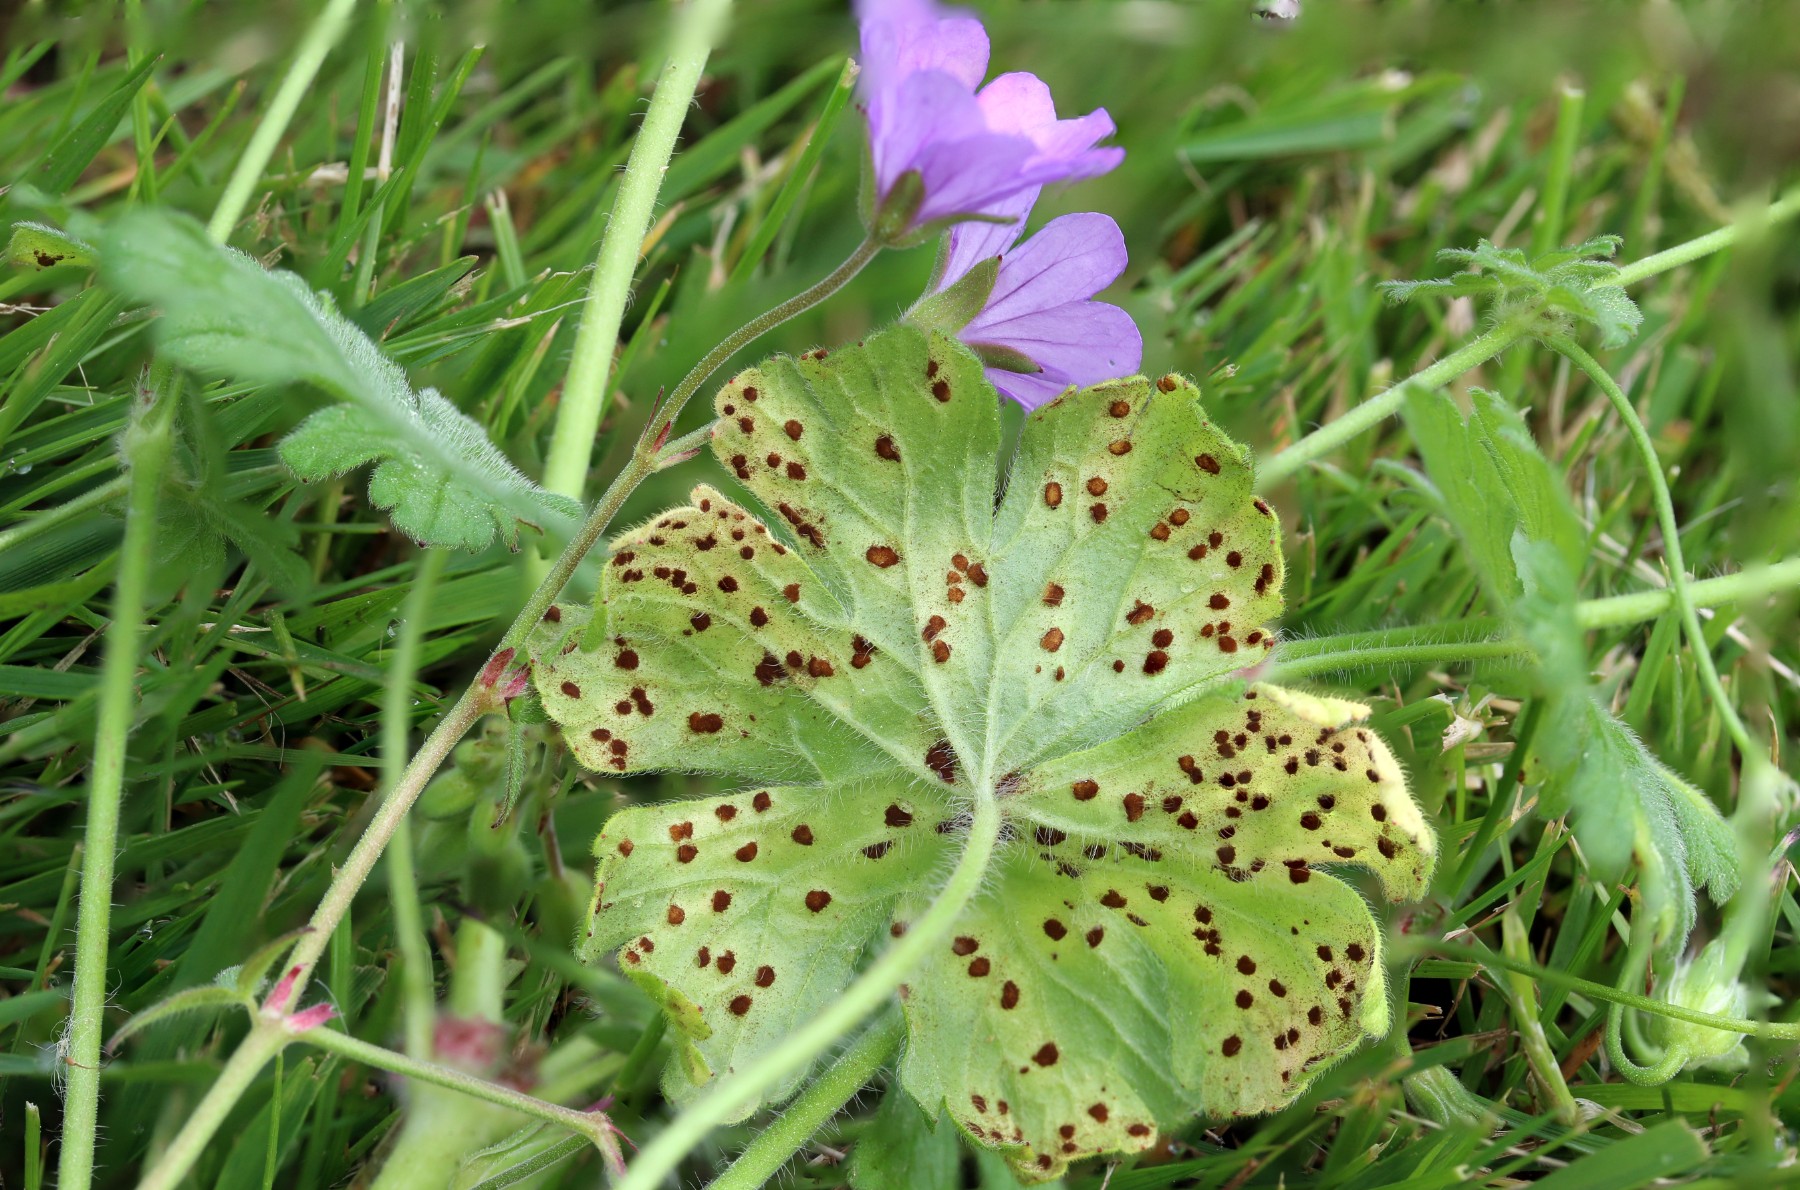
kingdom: Fungi
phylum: Basidiomycota
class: Pucciniomycetes
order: Pucciniales
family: Pucciniaceae
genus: Uromyces
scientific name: Uromyces geranii
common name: Geranium rust
